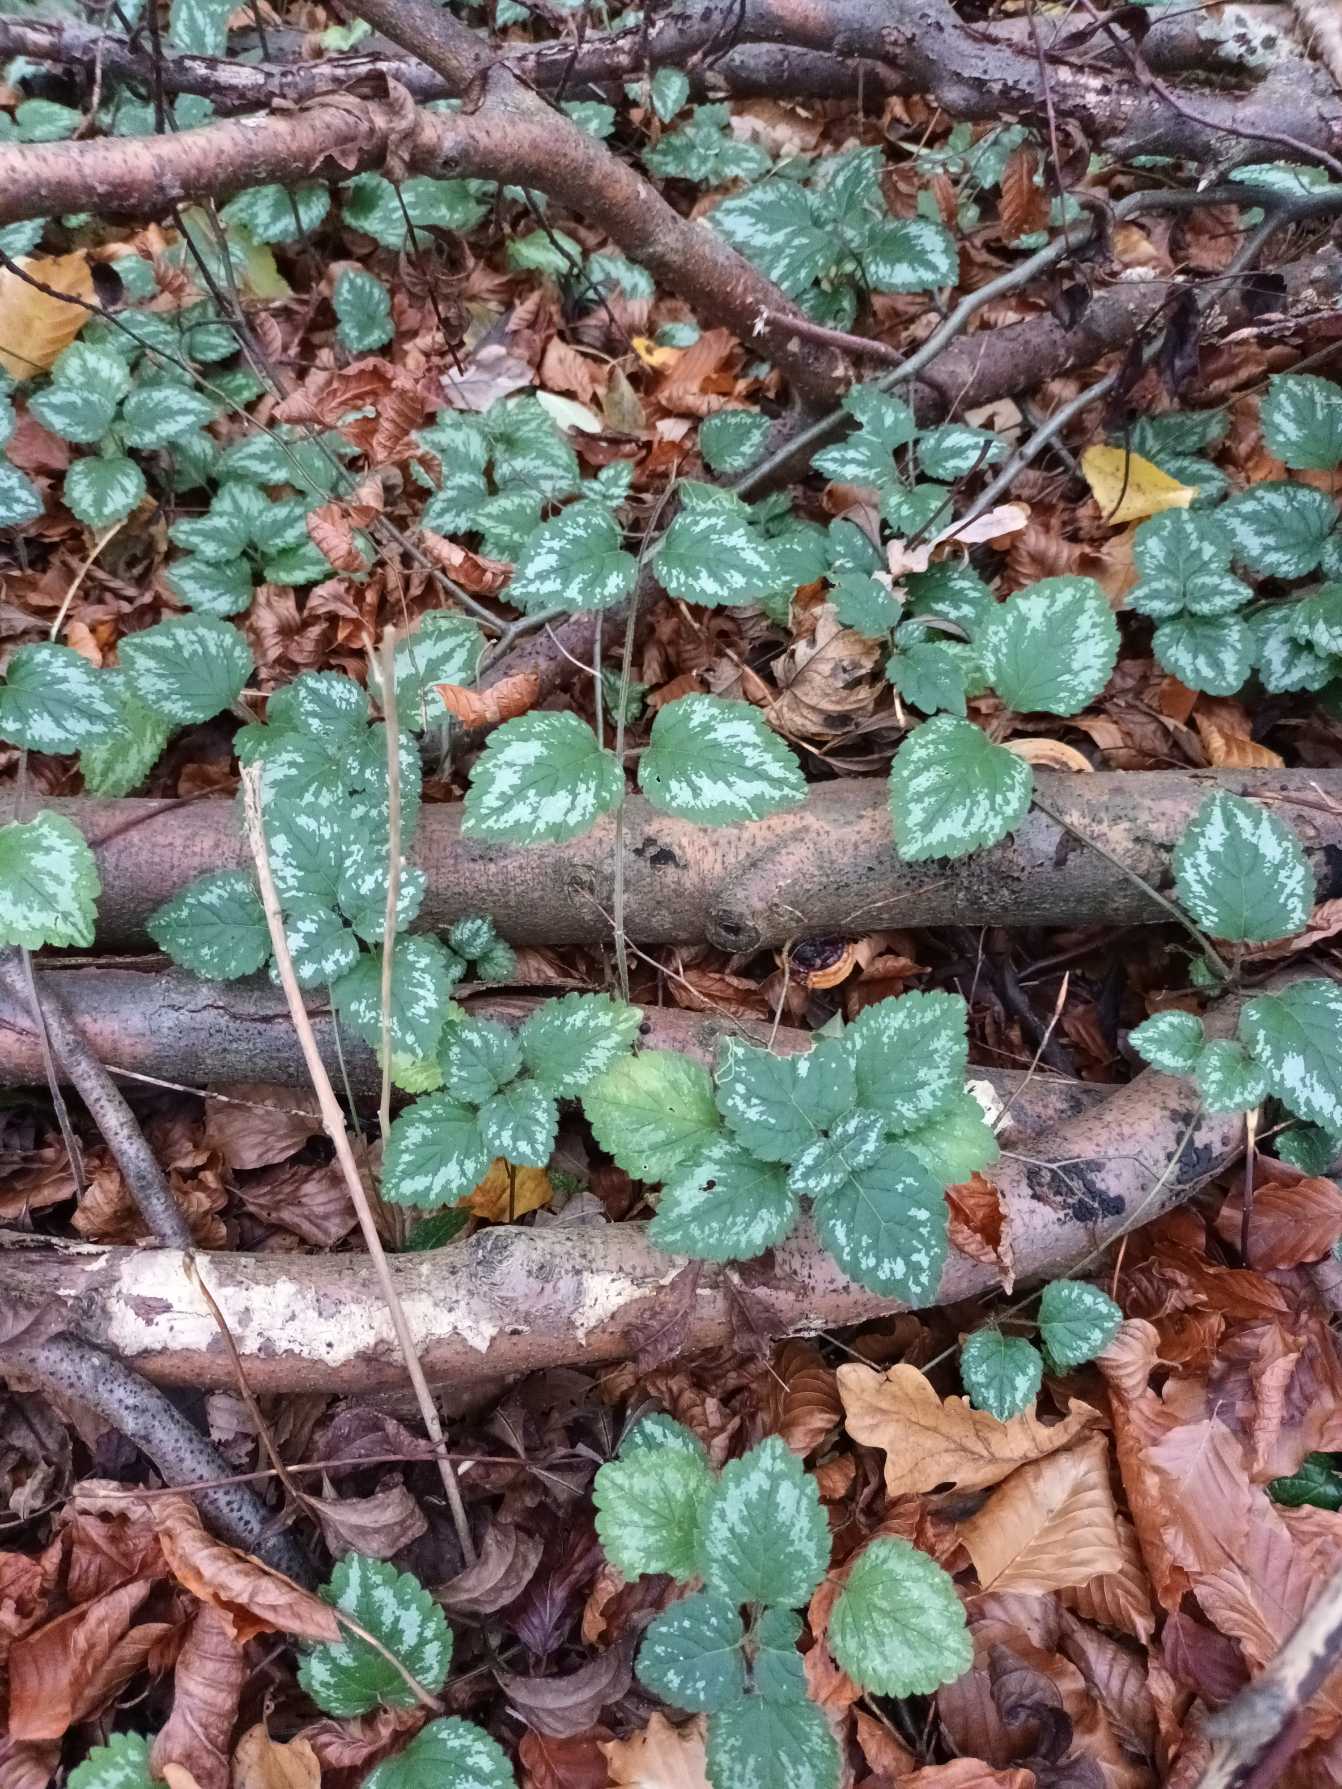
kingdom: Plantae
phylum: Tracheophyta
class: Magnoliopsida
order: Lamiales
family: Lamiaceae
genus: Lamium
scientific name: Lamium galeobdolon
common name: Have-guldnælde
